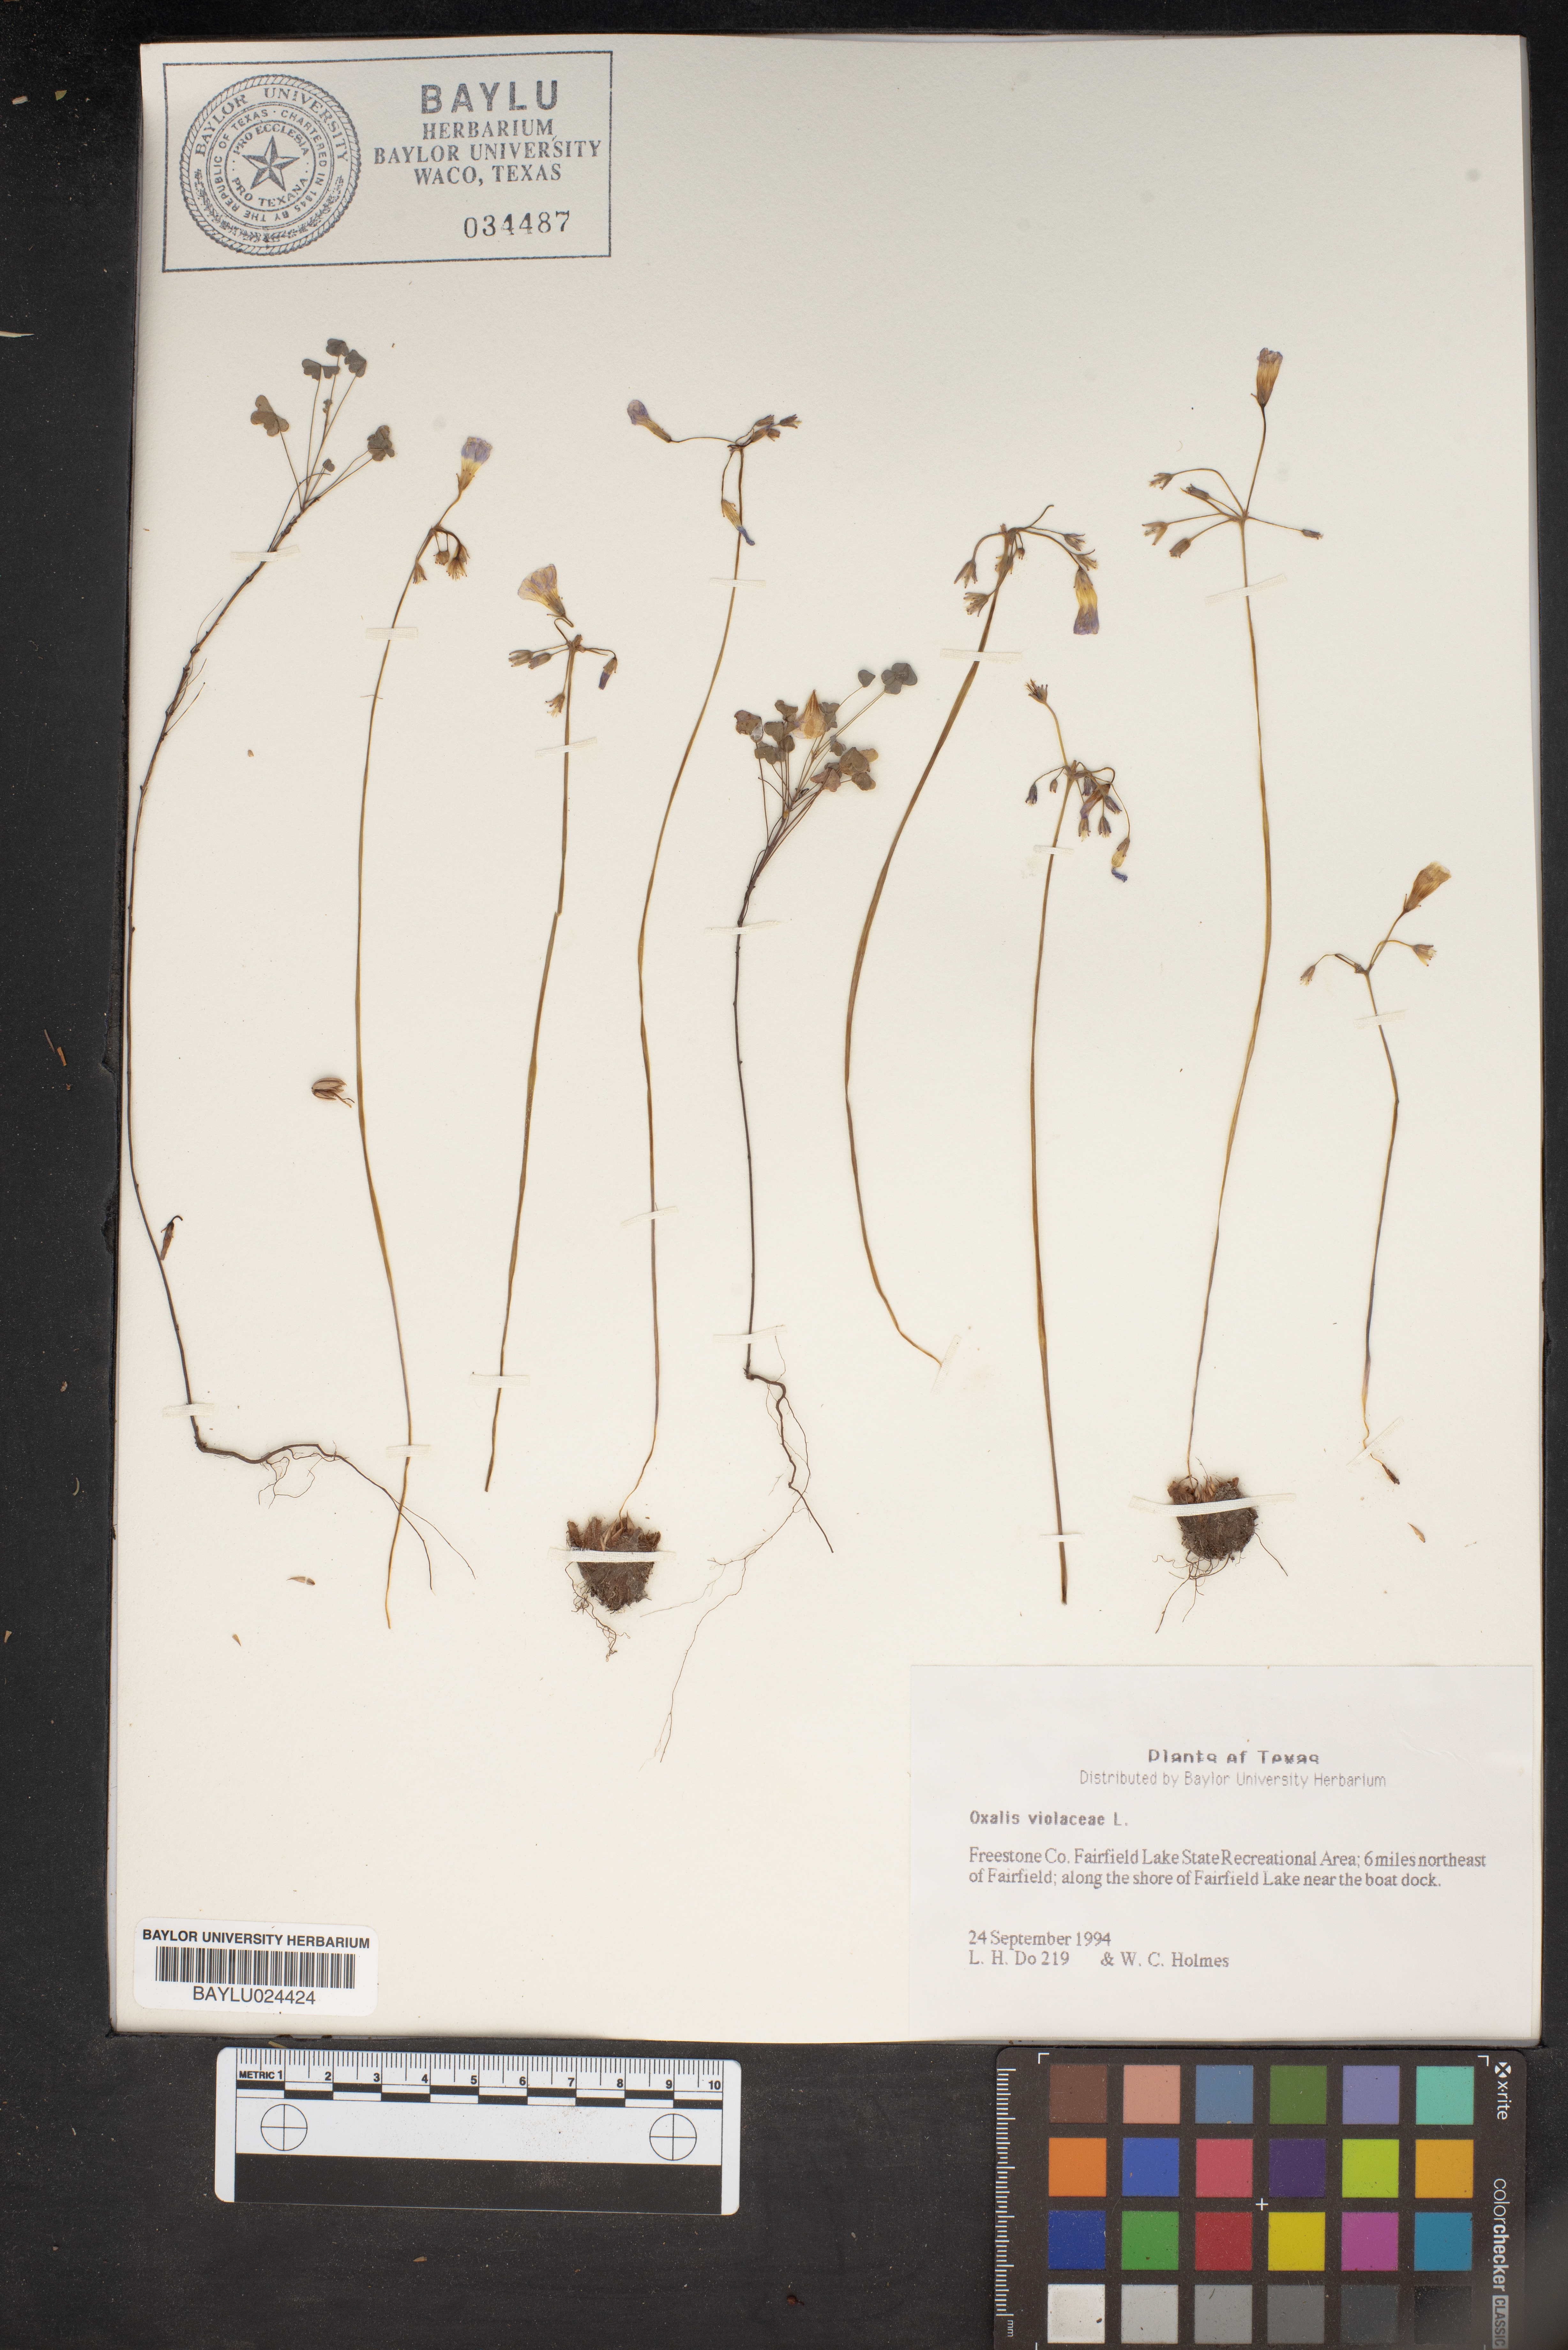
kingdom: Plantae
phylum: Tracheophyta
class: Magnoliopsida
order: Oxalidales
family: Oxalidaceae
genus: Oxalis
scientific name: Oxalis violacea
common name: Violet wood-sorrel
